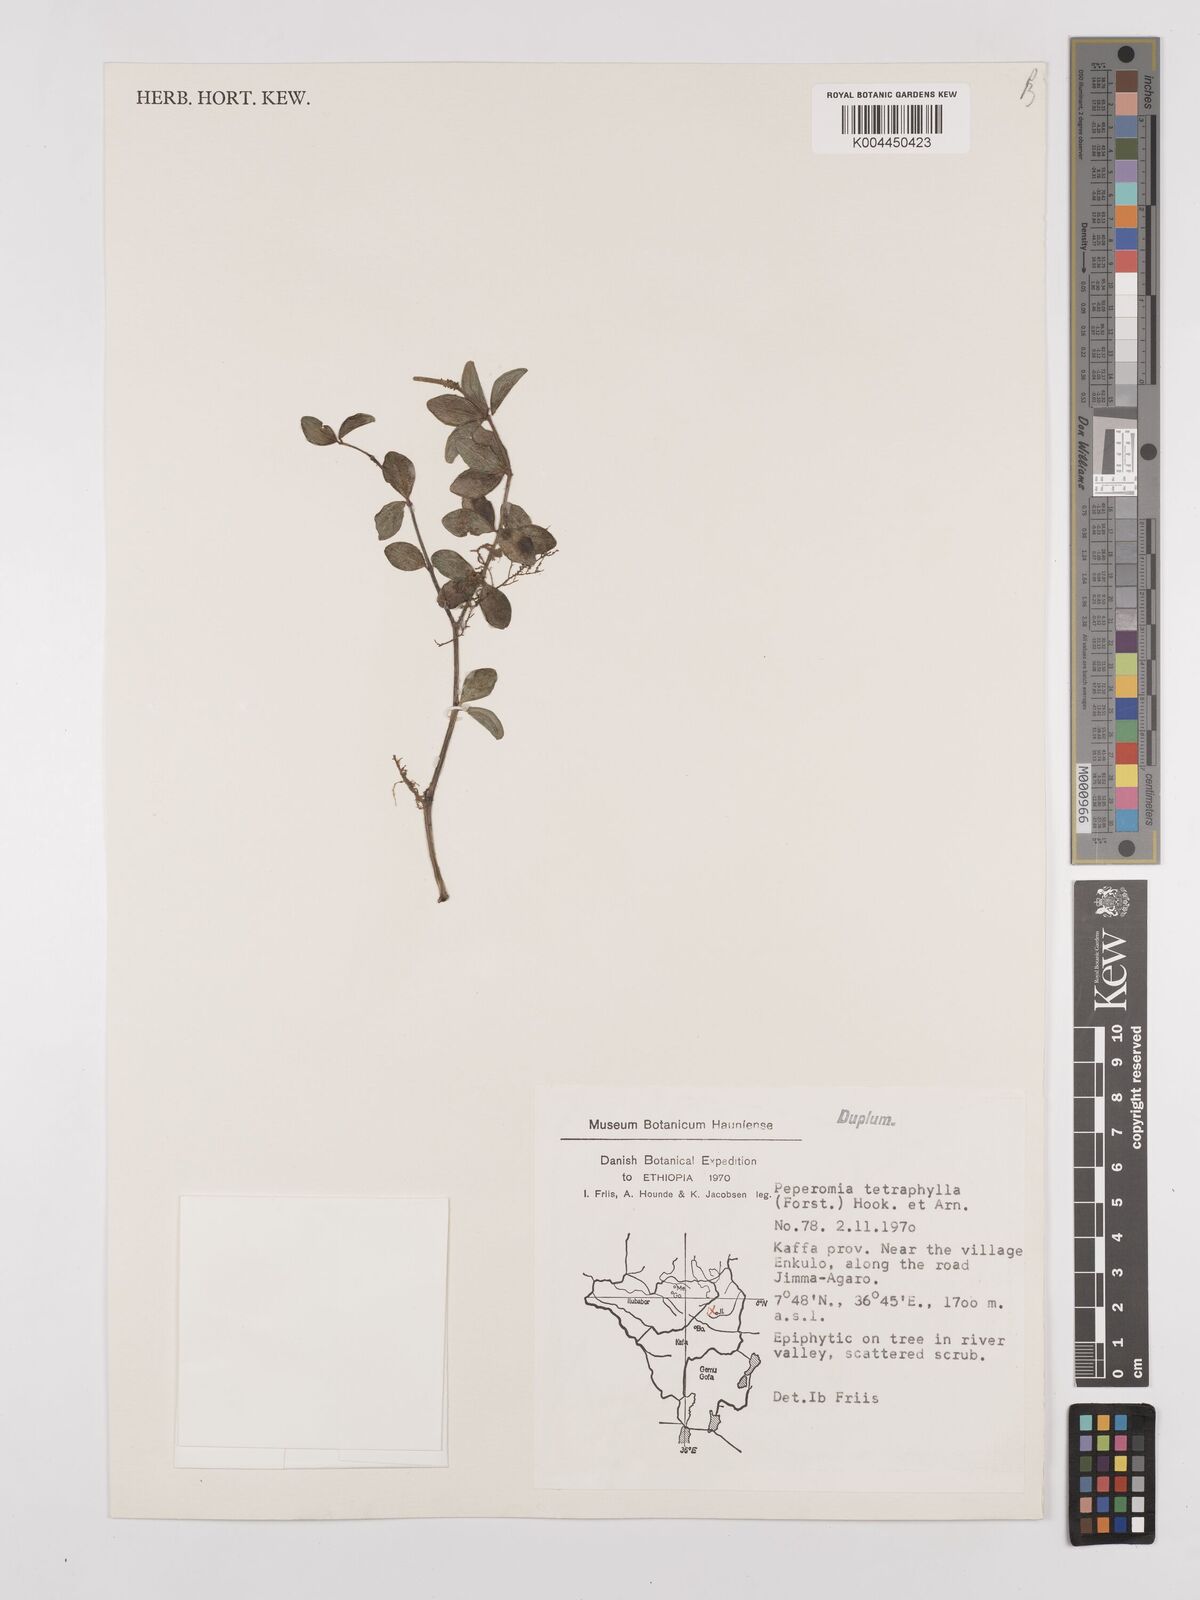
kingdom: Plantae
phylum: Tracheophyta
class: Magnoliopsida
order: Piperales
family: Piperaceae
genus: Peperomia
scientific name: Peperomia tetraphylla
